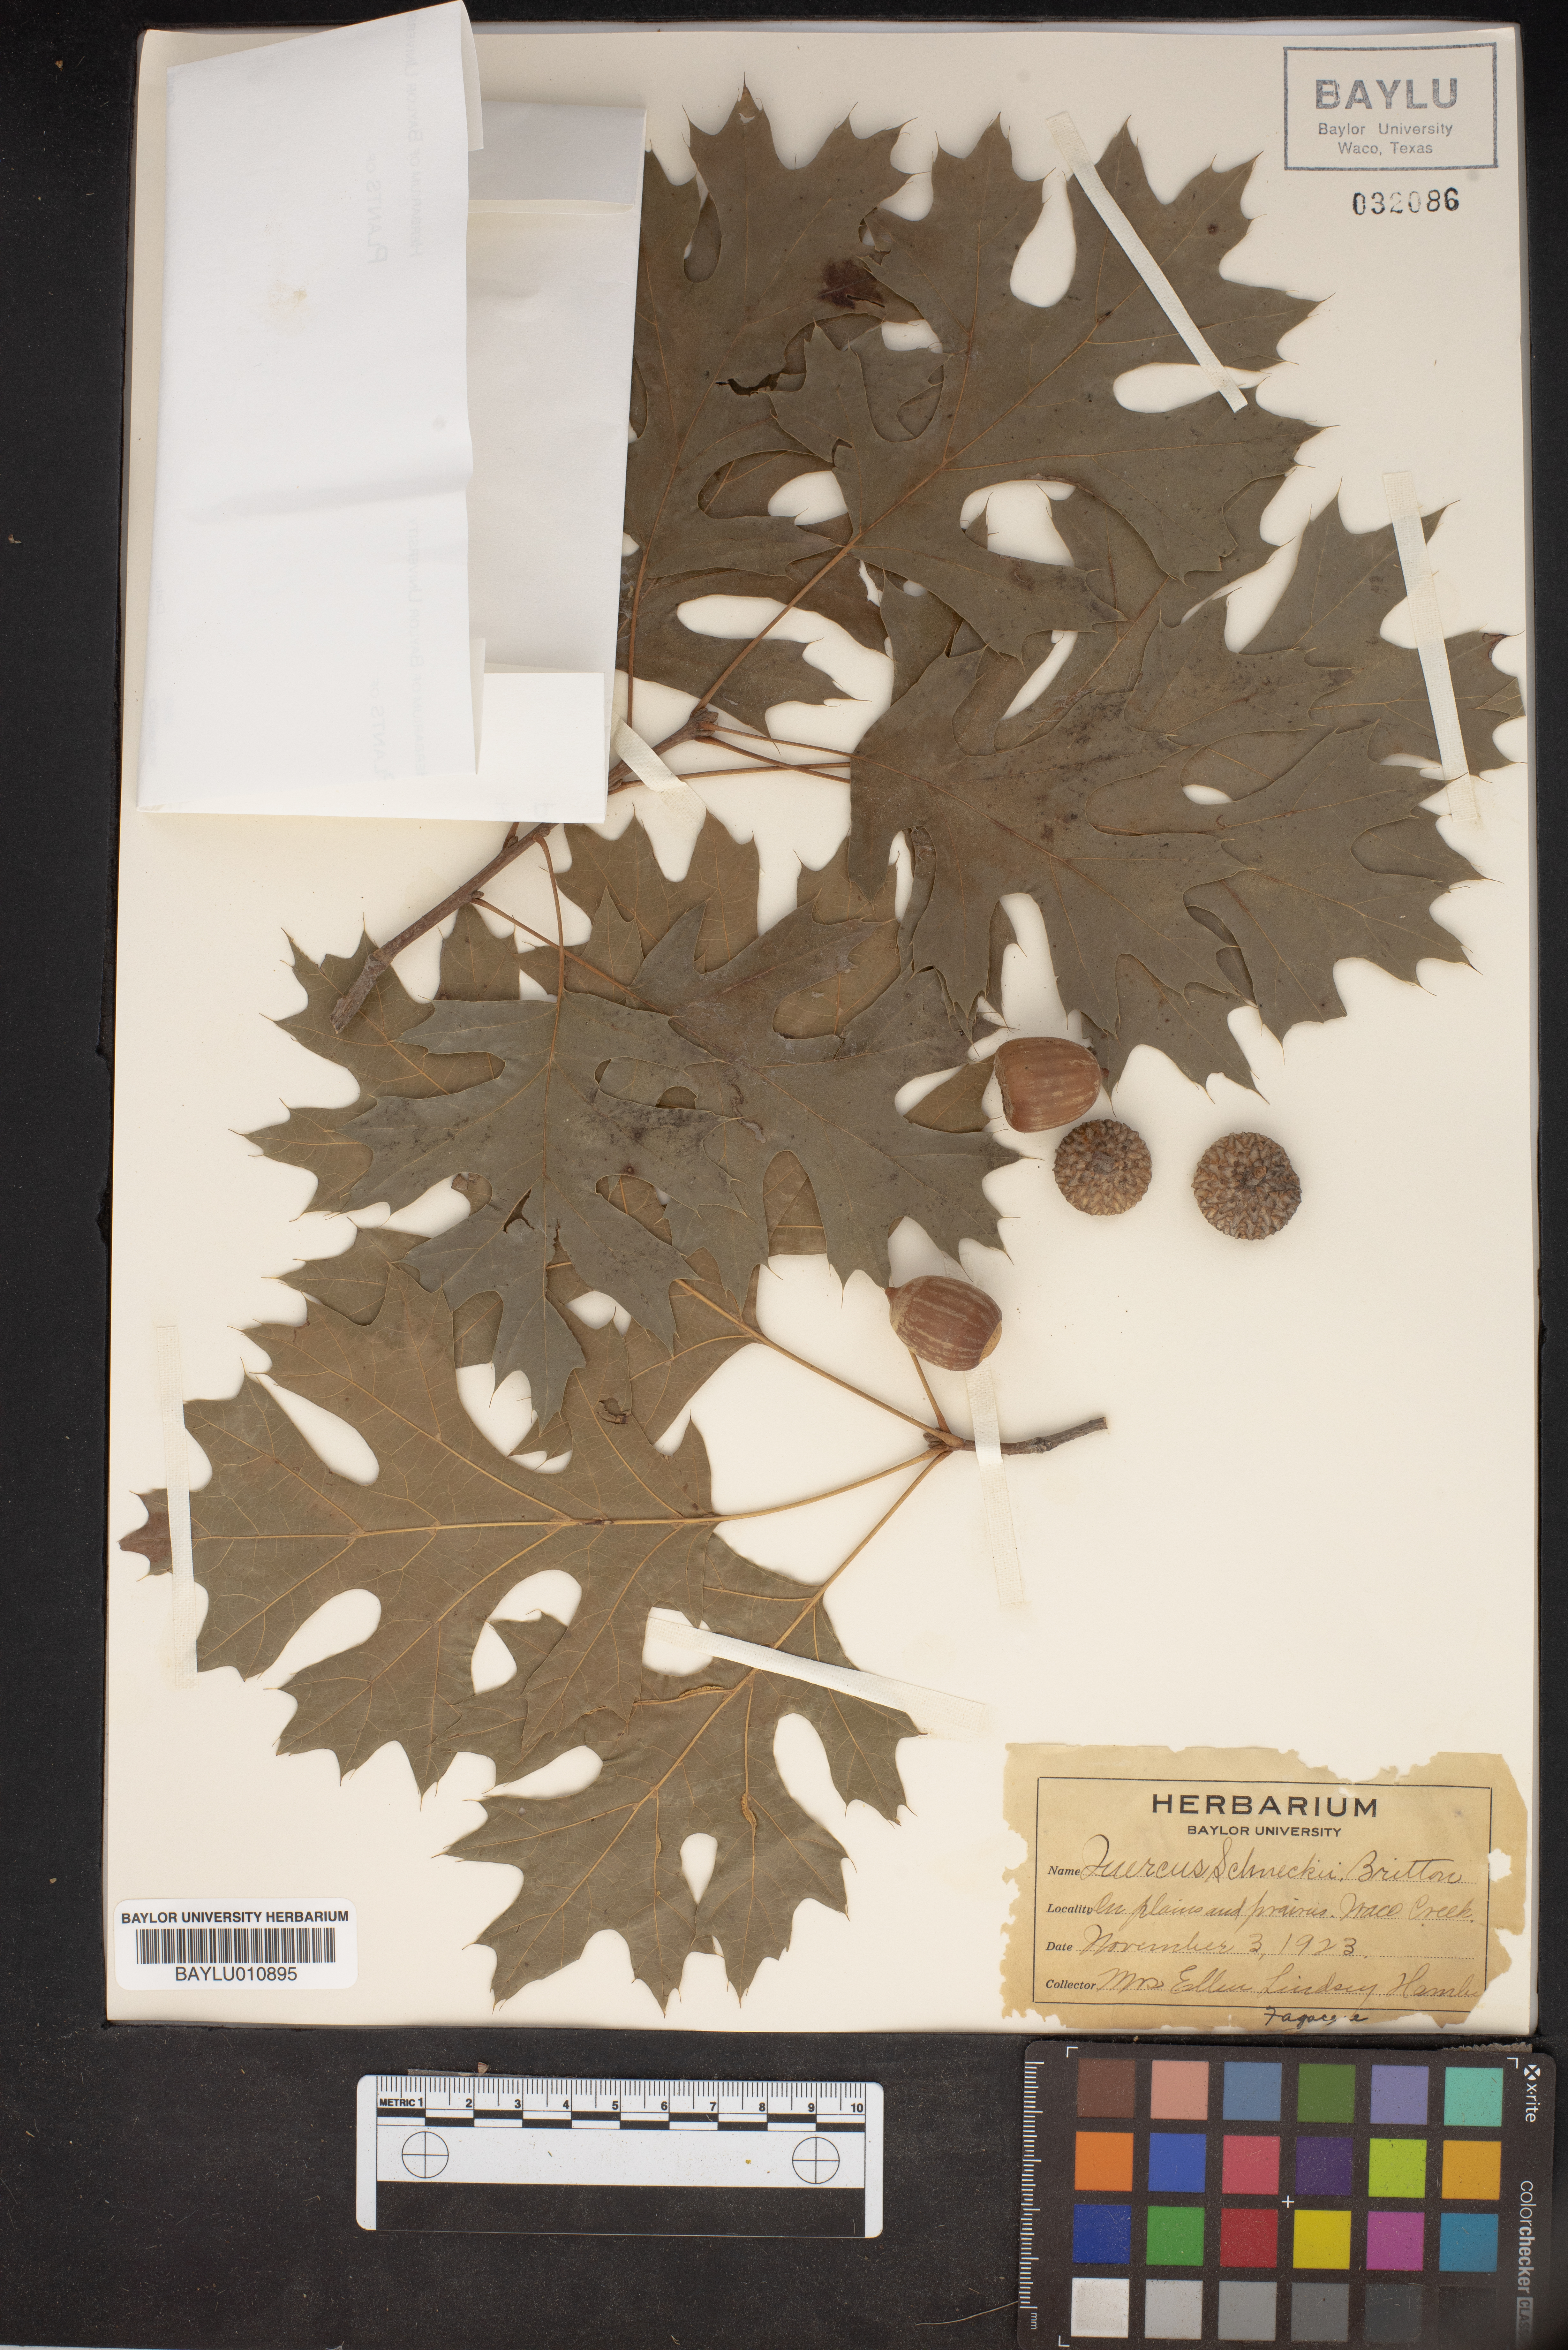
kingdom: Plantae
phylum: Tracheophyta
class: Magnoliopsida
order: Fagales
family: Fagaceae
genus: Quercus
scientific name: Quercus shumardii
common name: Shumard oak
